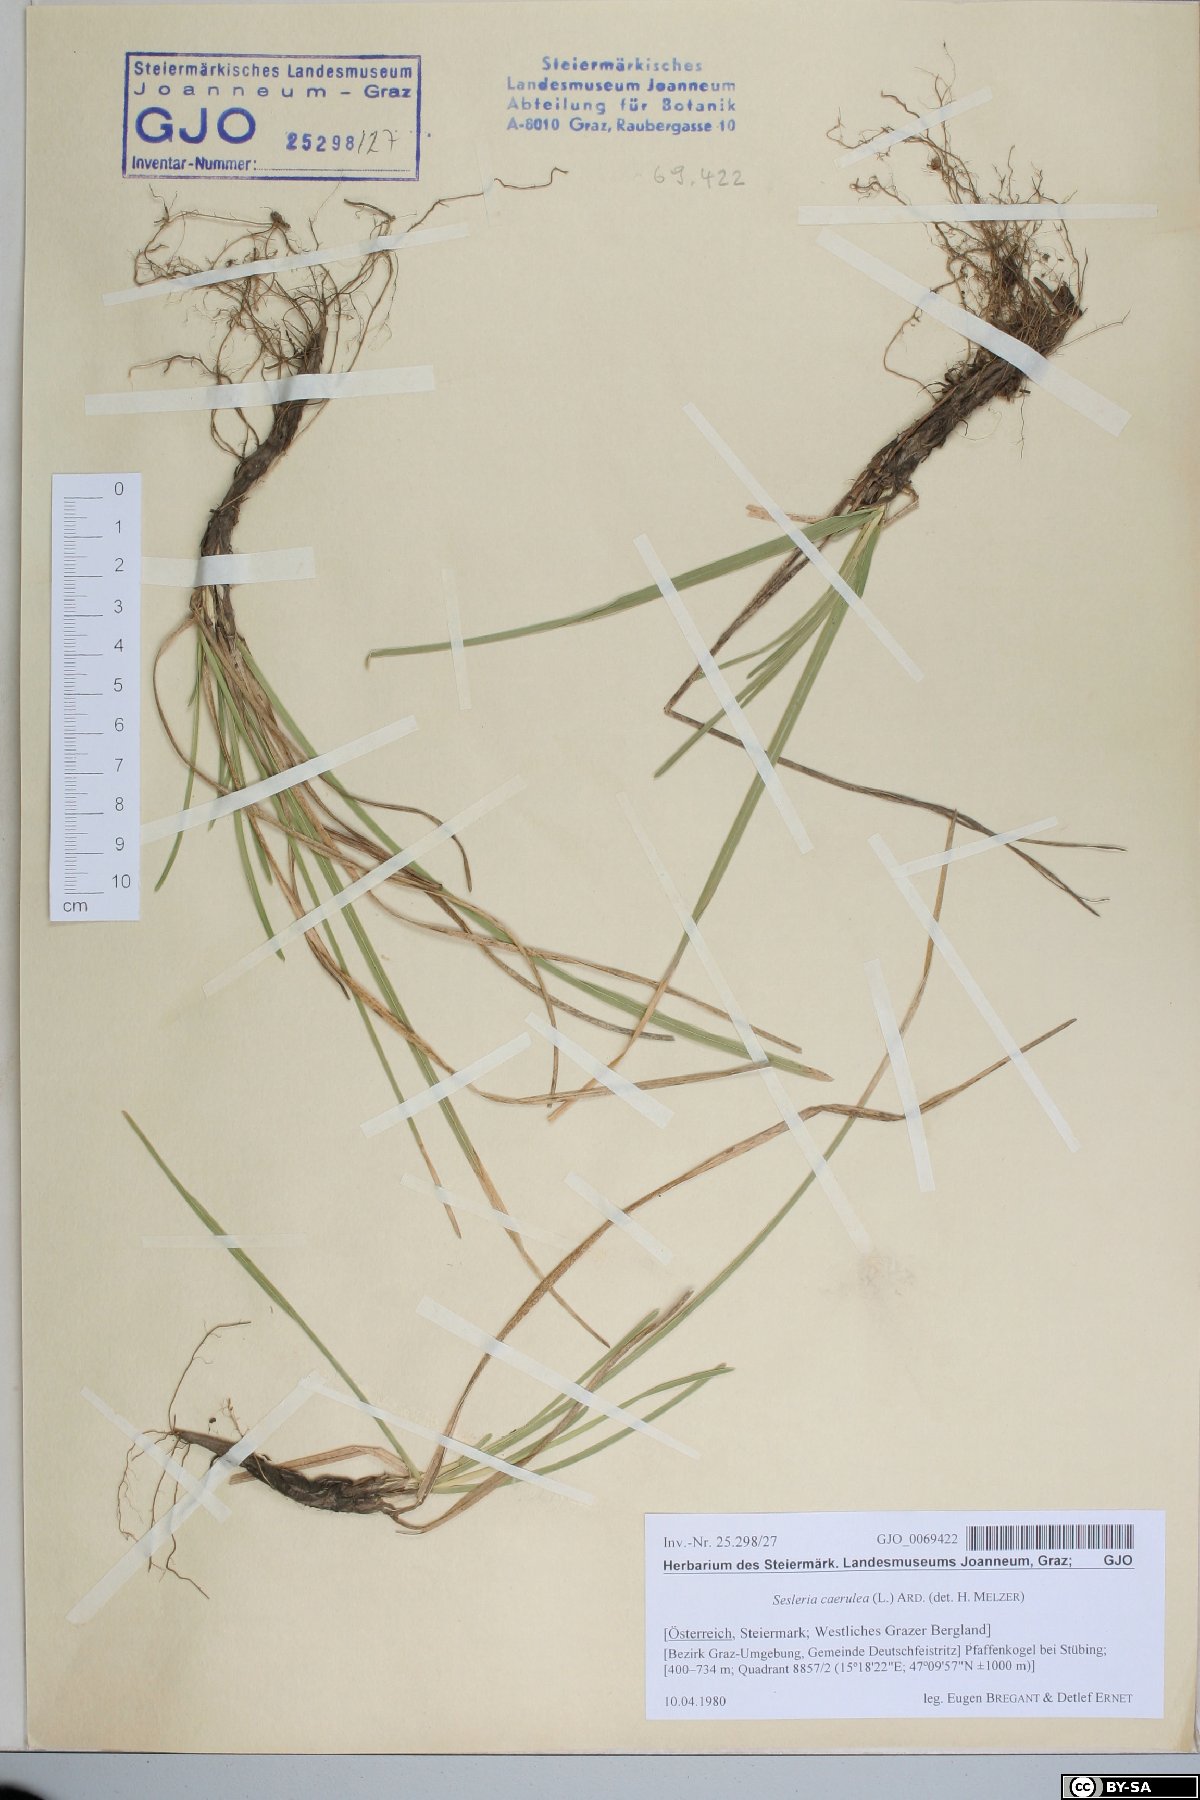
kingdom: Plantae
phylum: Tracheophyta
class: Liliopsida
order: Poales
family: Poaceae
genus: Sesleria
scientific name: Sesleria caerulea
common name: Blue moor-grass
